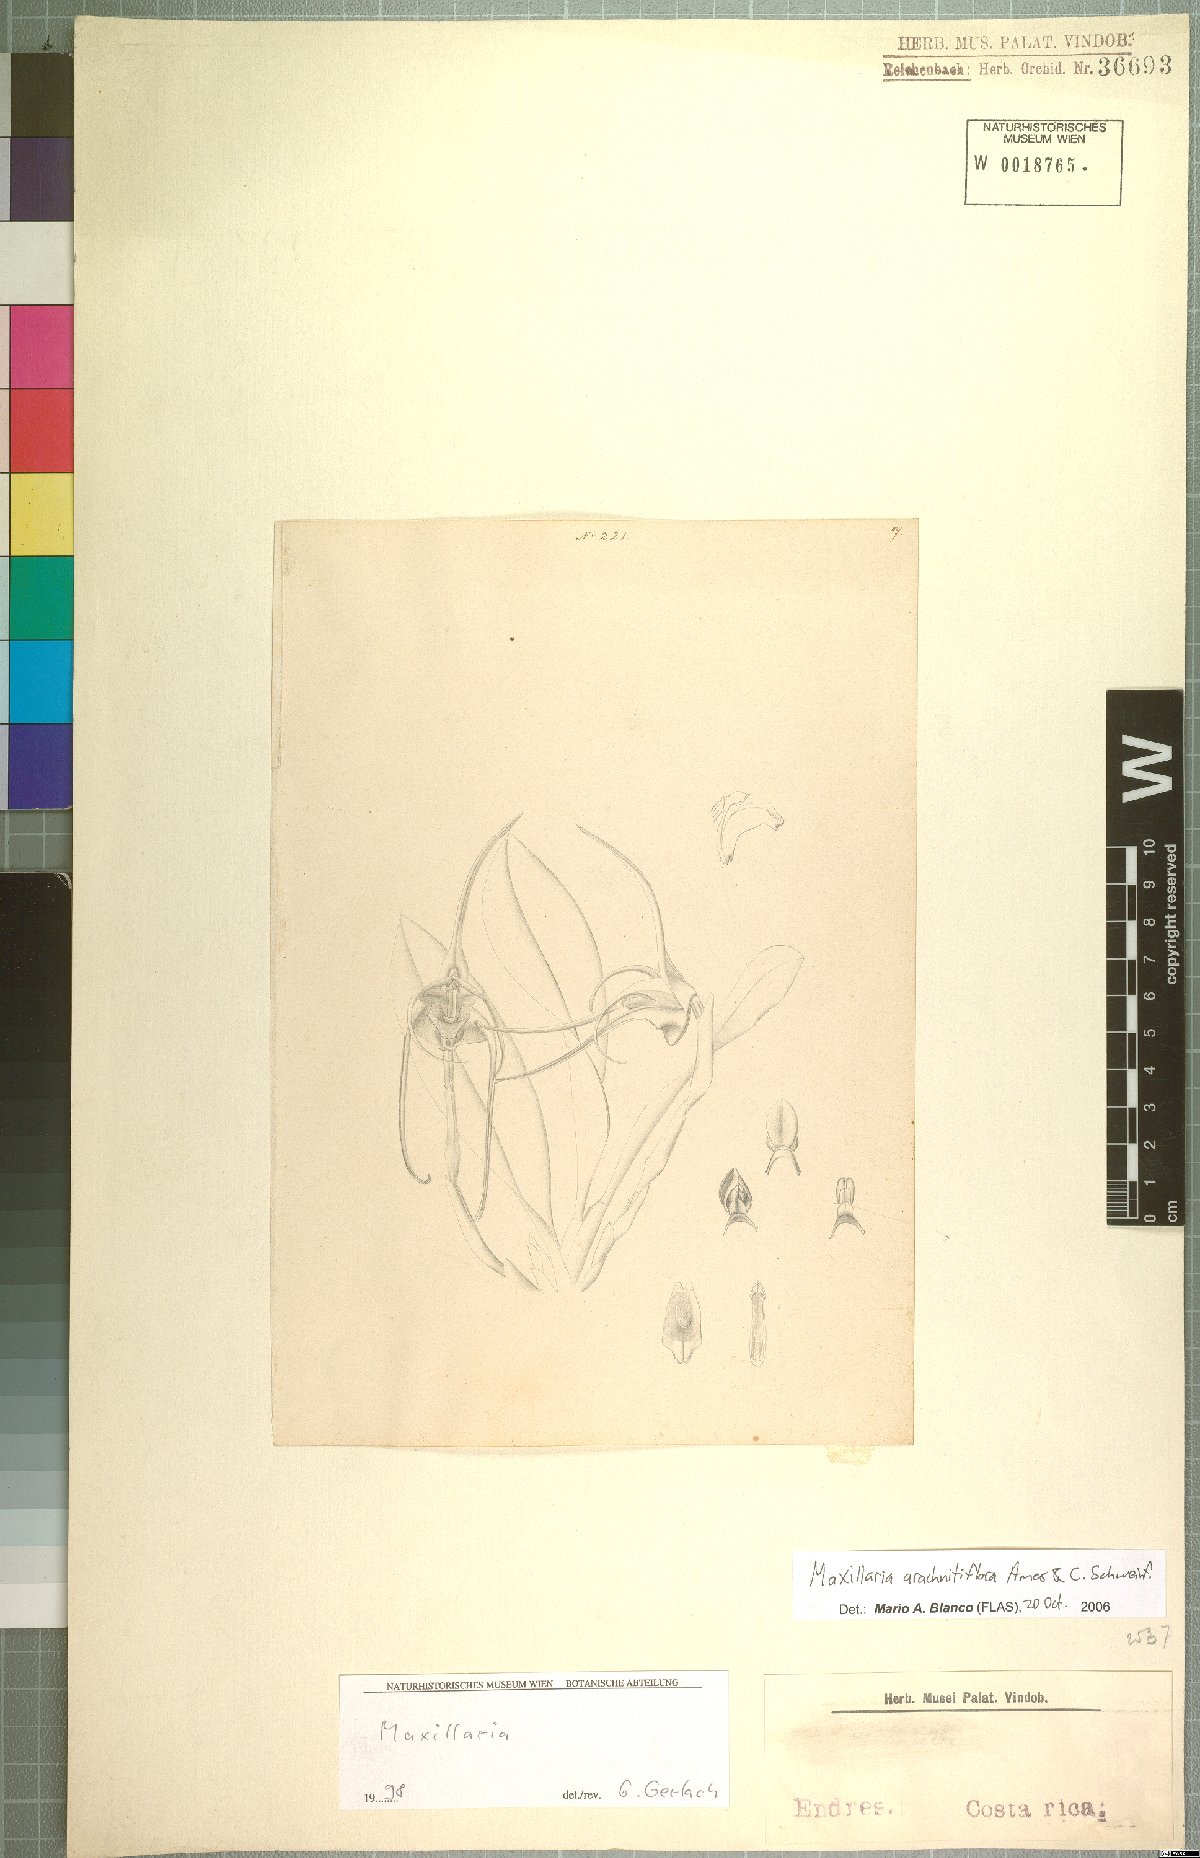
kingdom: Plantae
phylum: Tracheophyta
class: Liliopsida
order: Asparagales
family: Orchidaceae
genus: Maxillaria
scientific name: Maxillaria arachnitiflora
